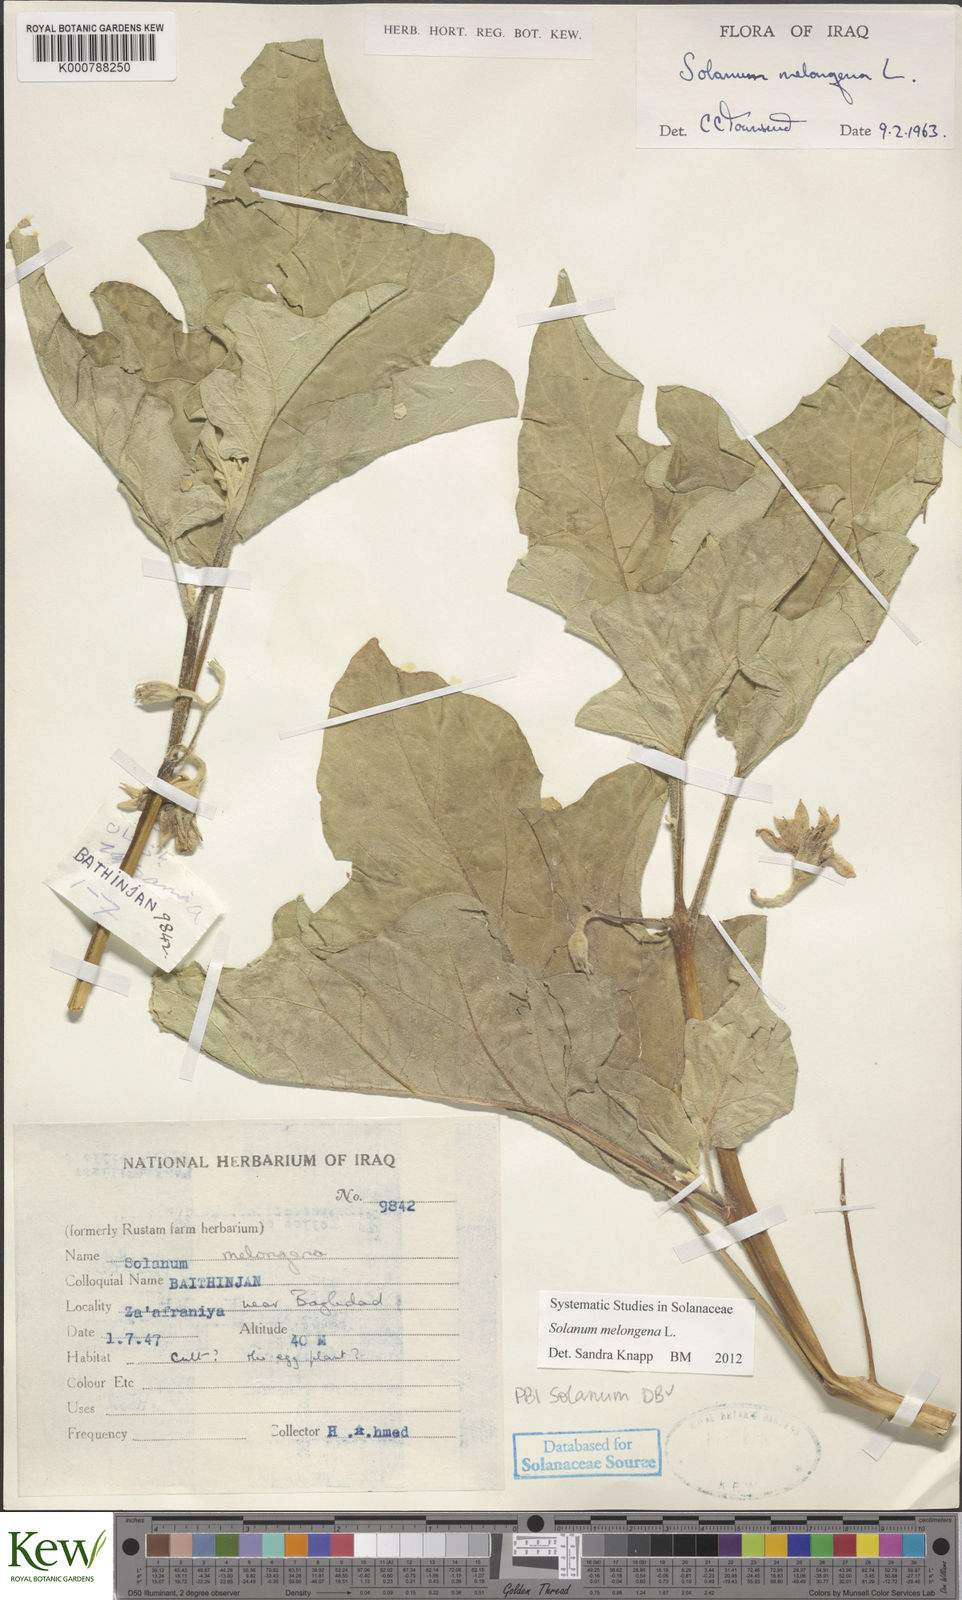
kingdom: Plantae
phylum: Tracheophyta
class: Magnoliopsida
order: Solanales
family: Solanaceae
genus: Solanum
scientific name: Solanum melongena
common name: Eggplant
